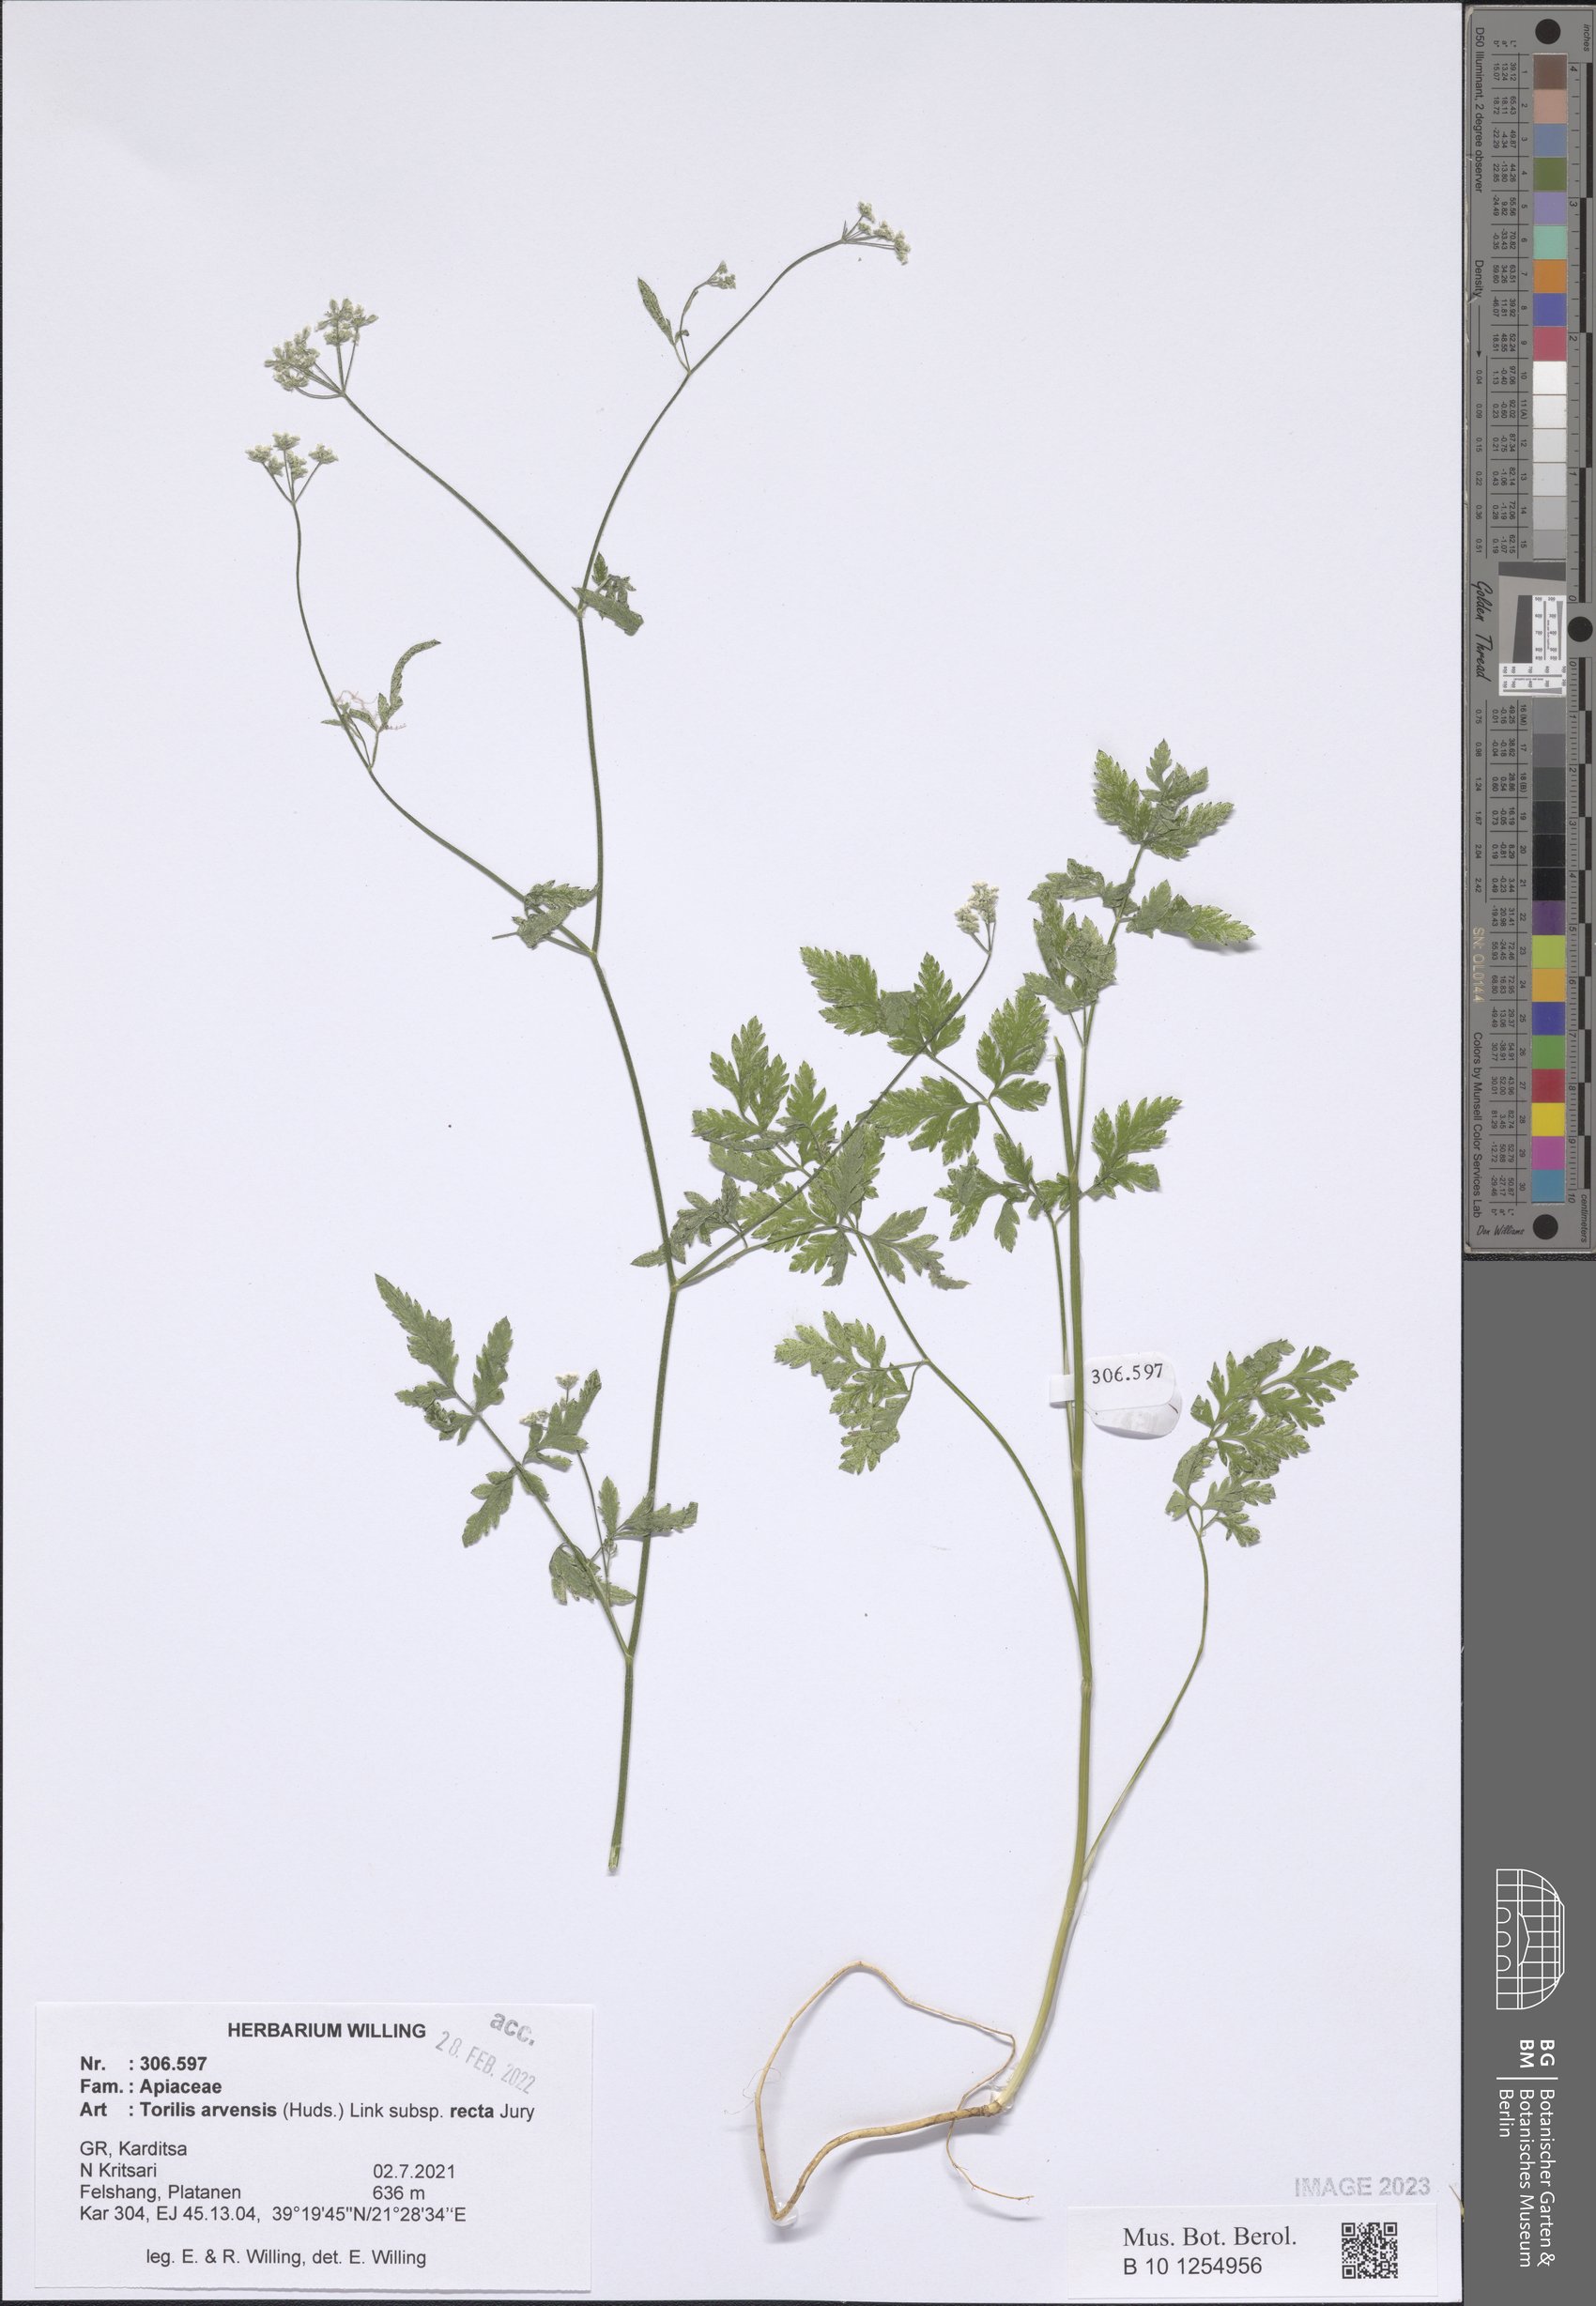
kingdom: Plantae
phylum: Tracheophyta
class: Magnoliopsida
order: Apiales
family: Apiaceae
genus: Torilis
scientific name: Torilis arvensis
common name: Spreading hedge-parsley
